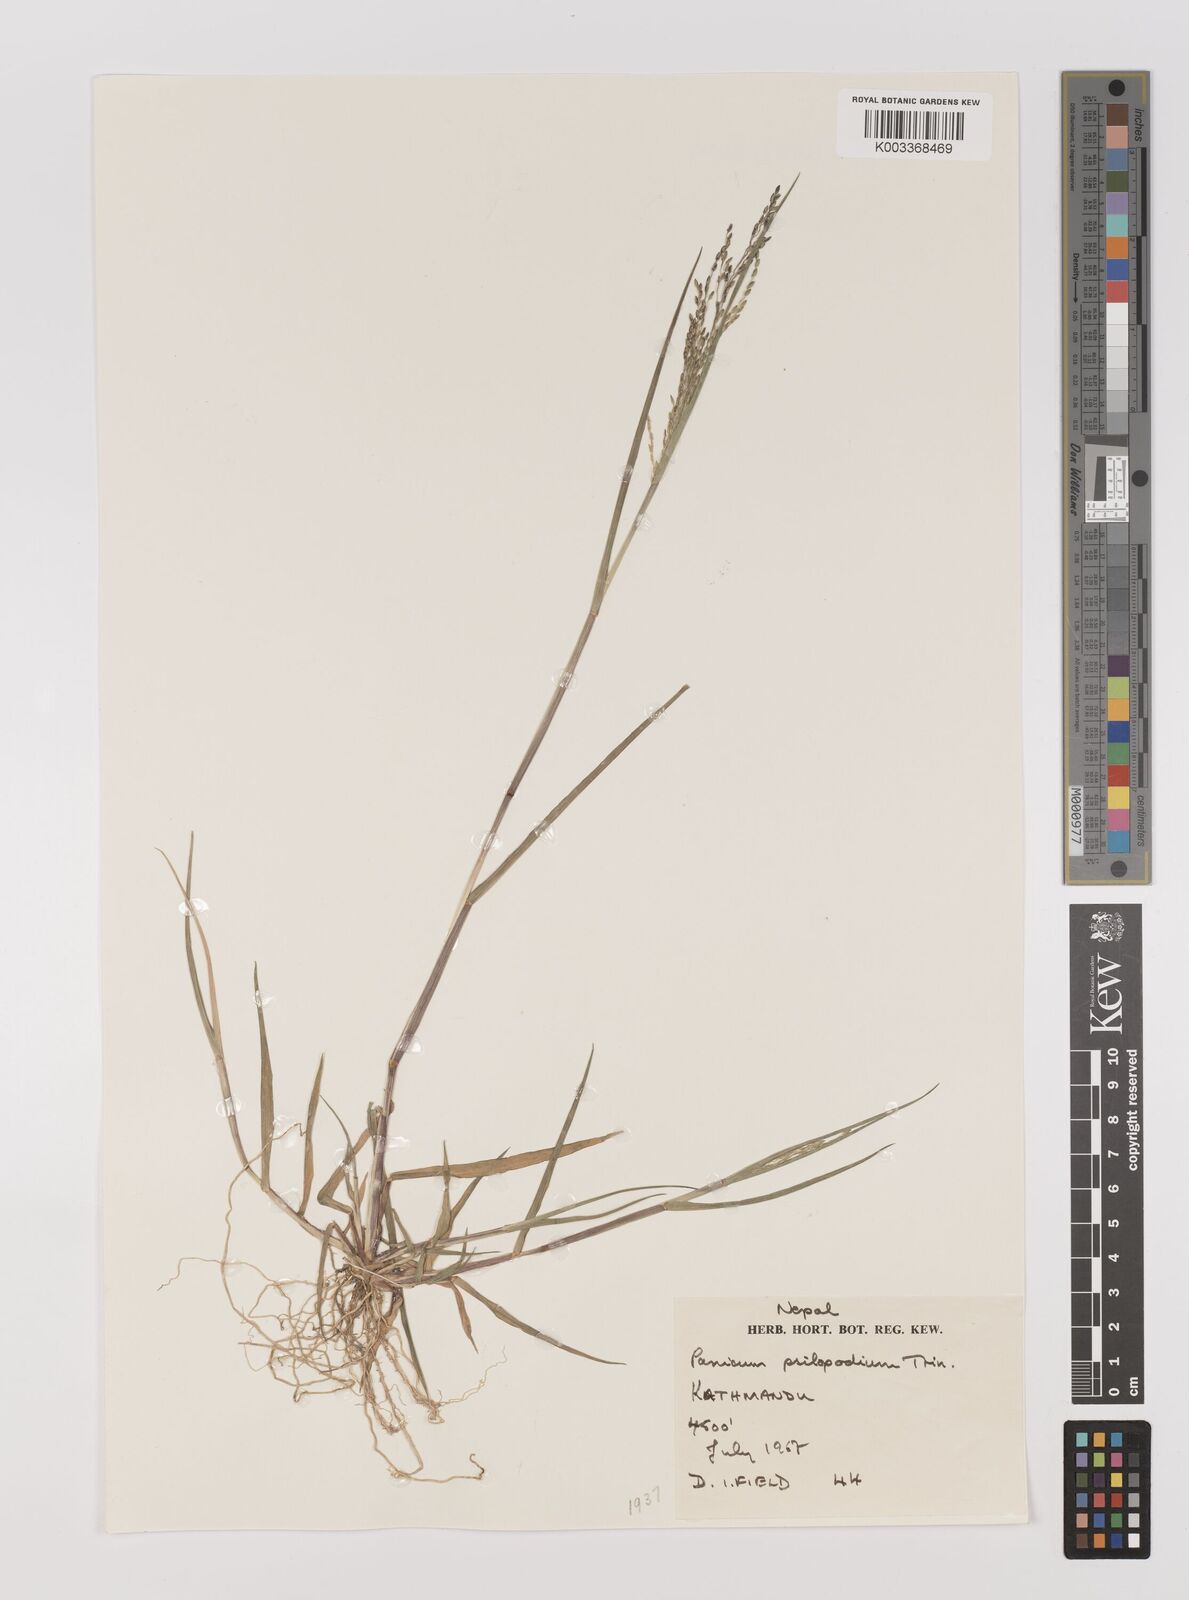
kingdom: Plantae
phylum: Tracheophyta
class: Liliopsida
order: Poales
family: Poaceae
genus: Panicum
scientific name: Panicum sumatrense
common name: Little millet
